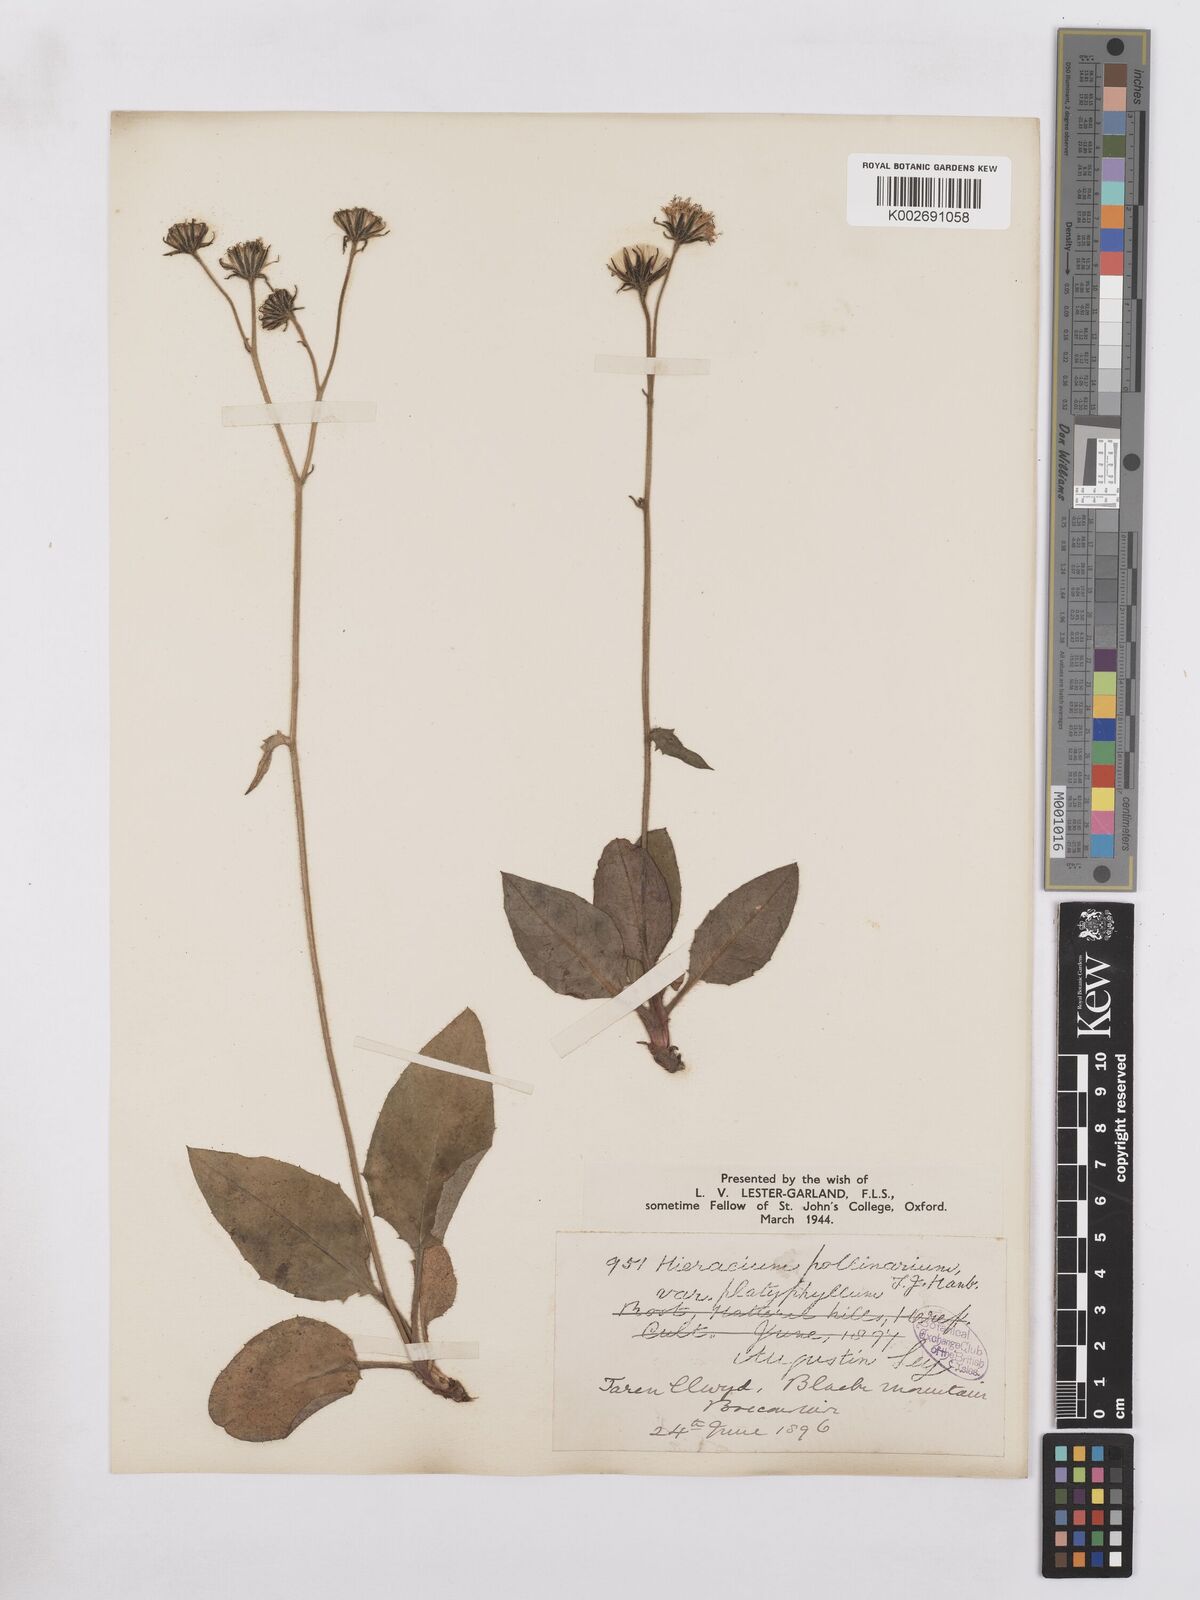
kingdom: Plantae
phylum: Tracheophyta
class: Magnoliopsida
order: Asterales
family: Asteraceae
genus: Hieracium
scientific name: Hieracium leyanum
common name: Fat-leaved hawkweed
